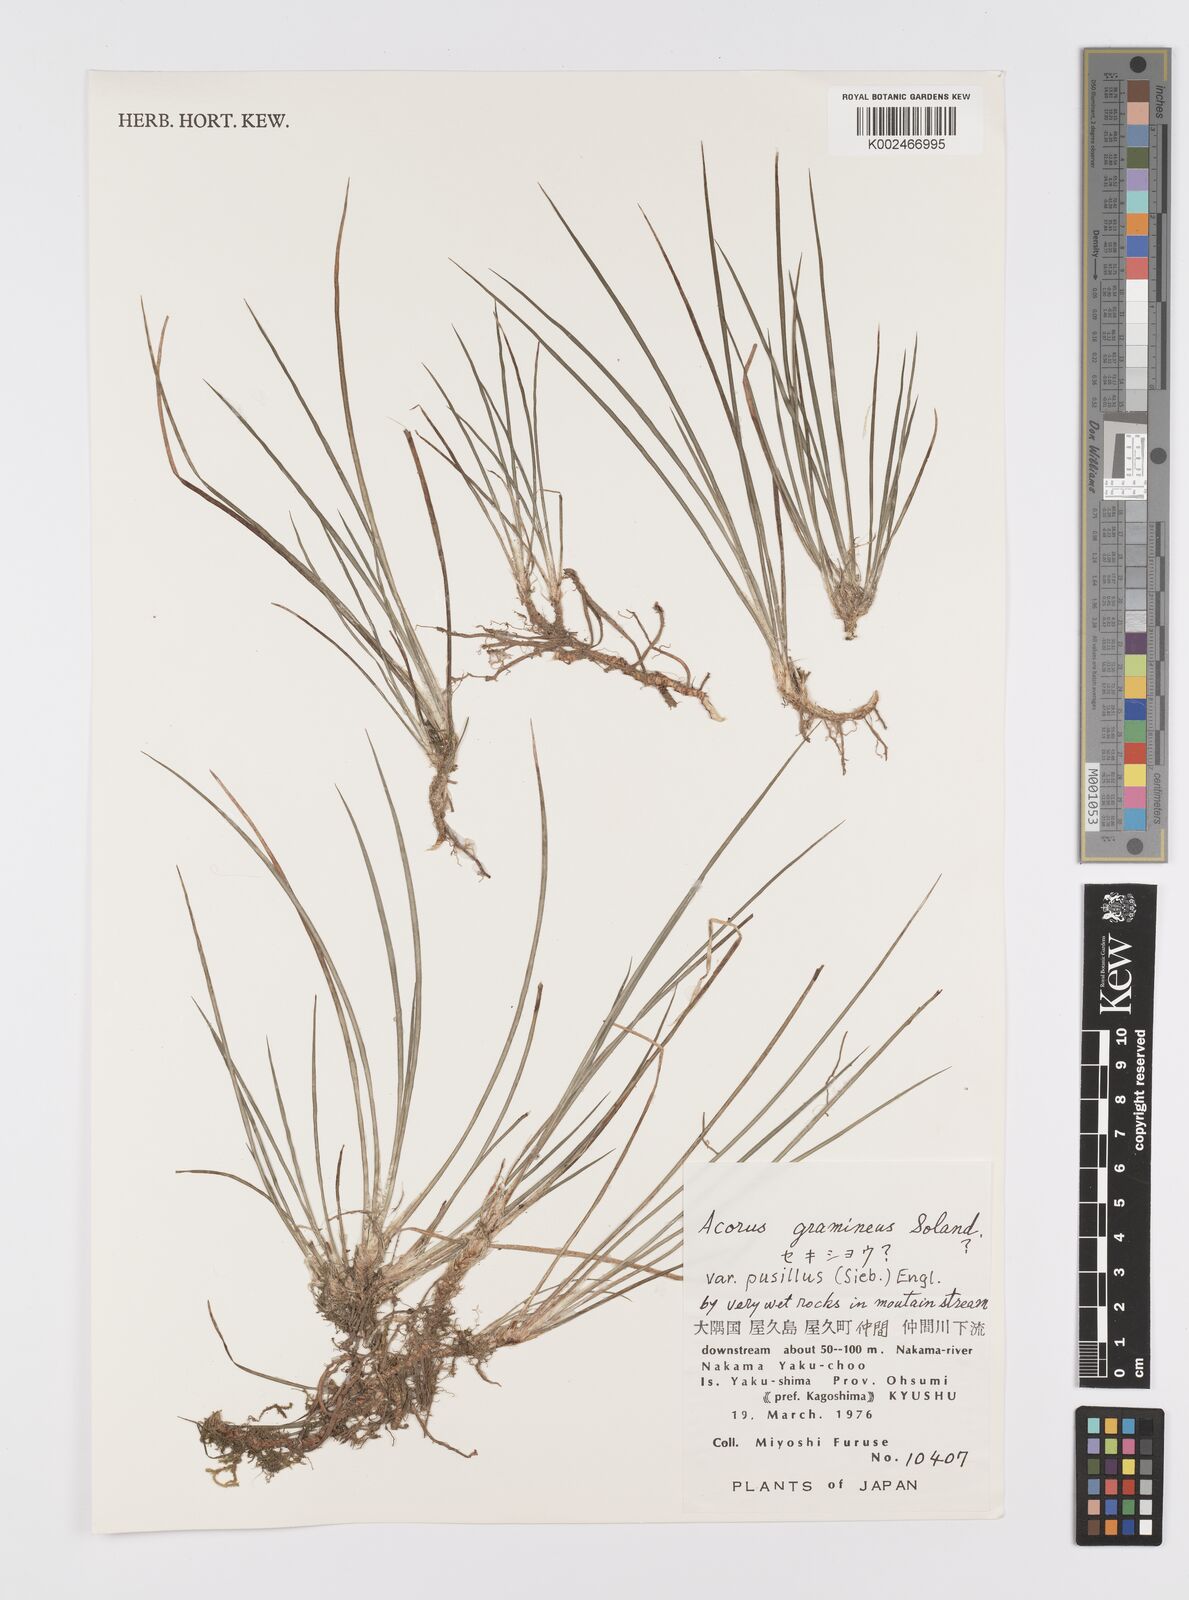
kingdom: Plantae
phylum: Tracheophyta
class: Liliopsida
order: Acorales
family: Acoraceae
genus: Acorus
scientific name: Acorus gramineus
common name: Slender sweet-flag
